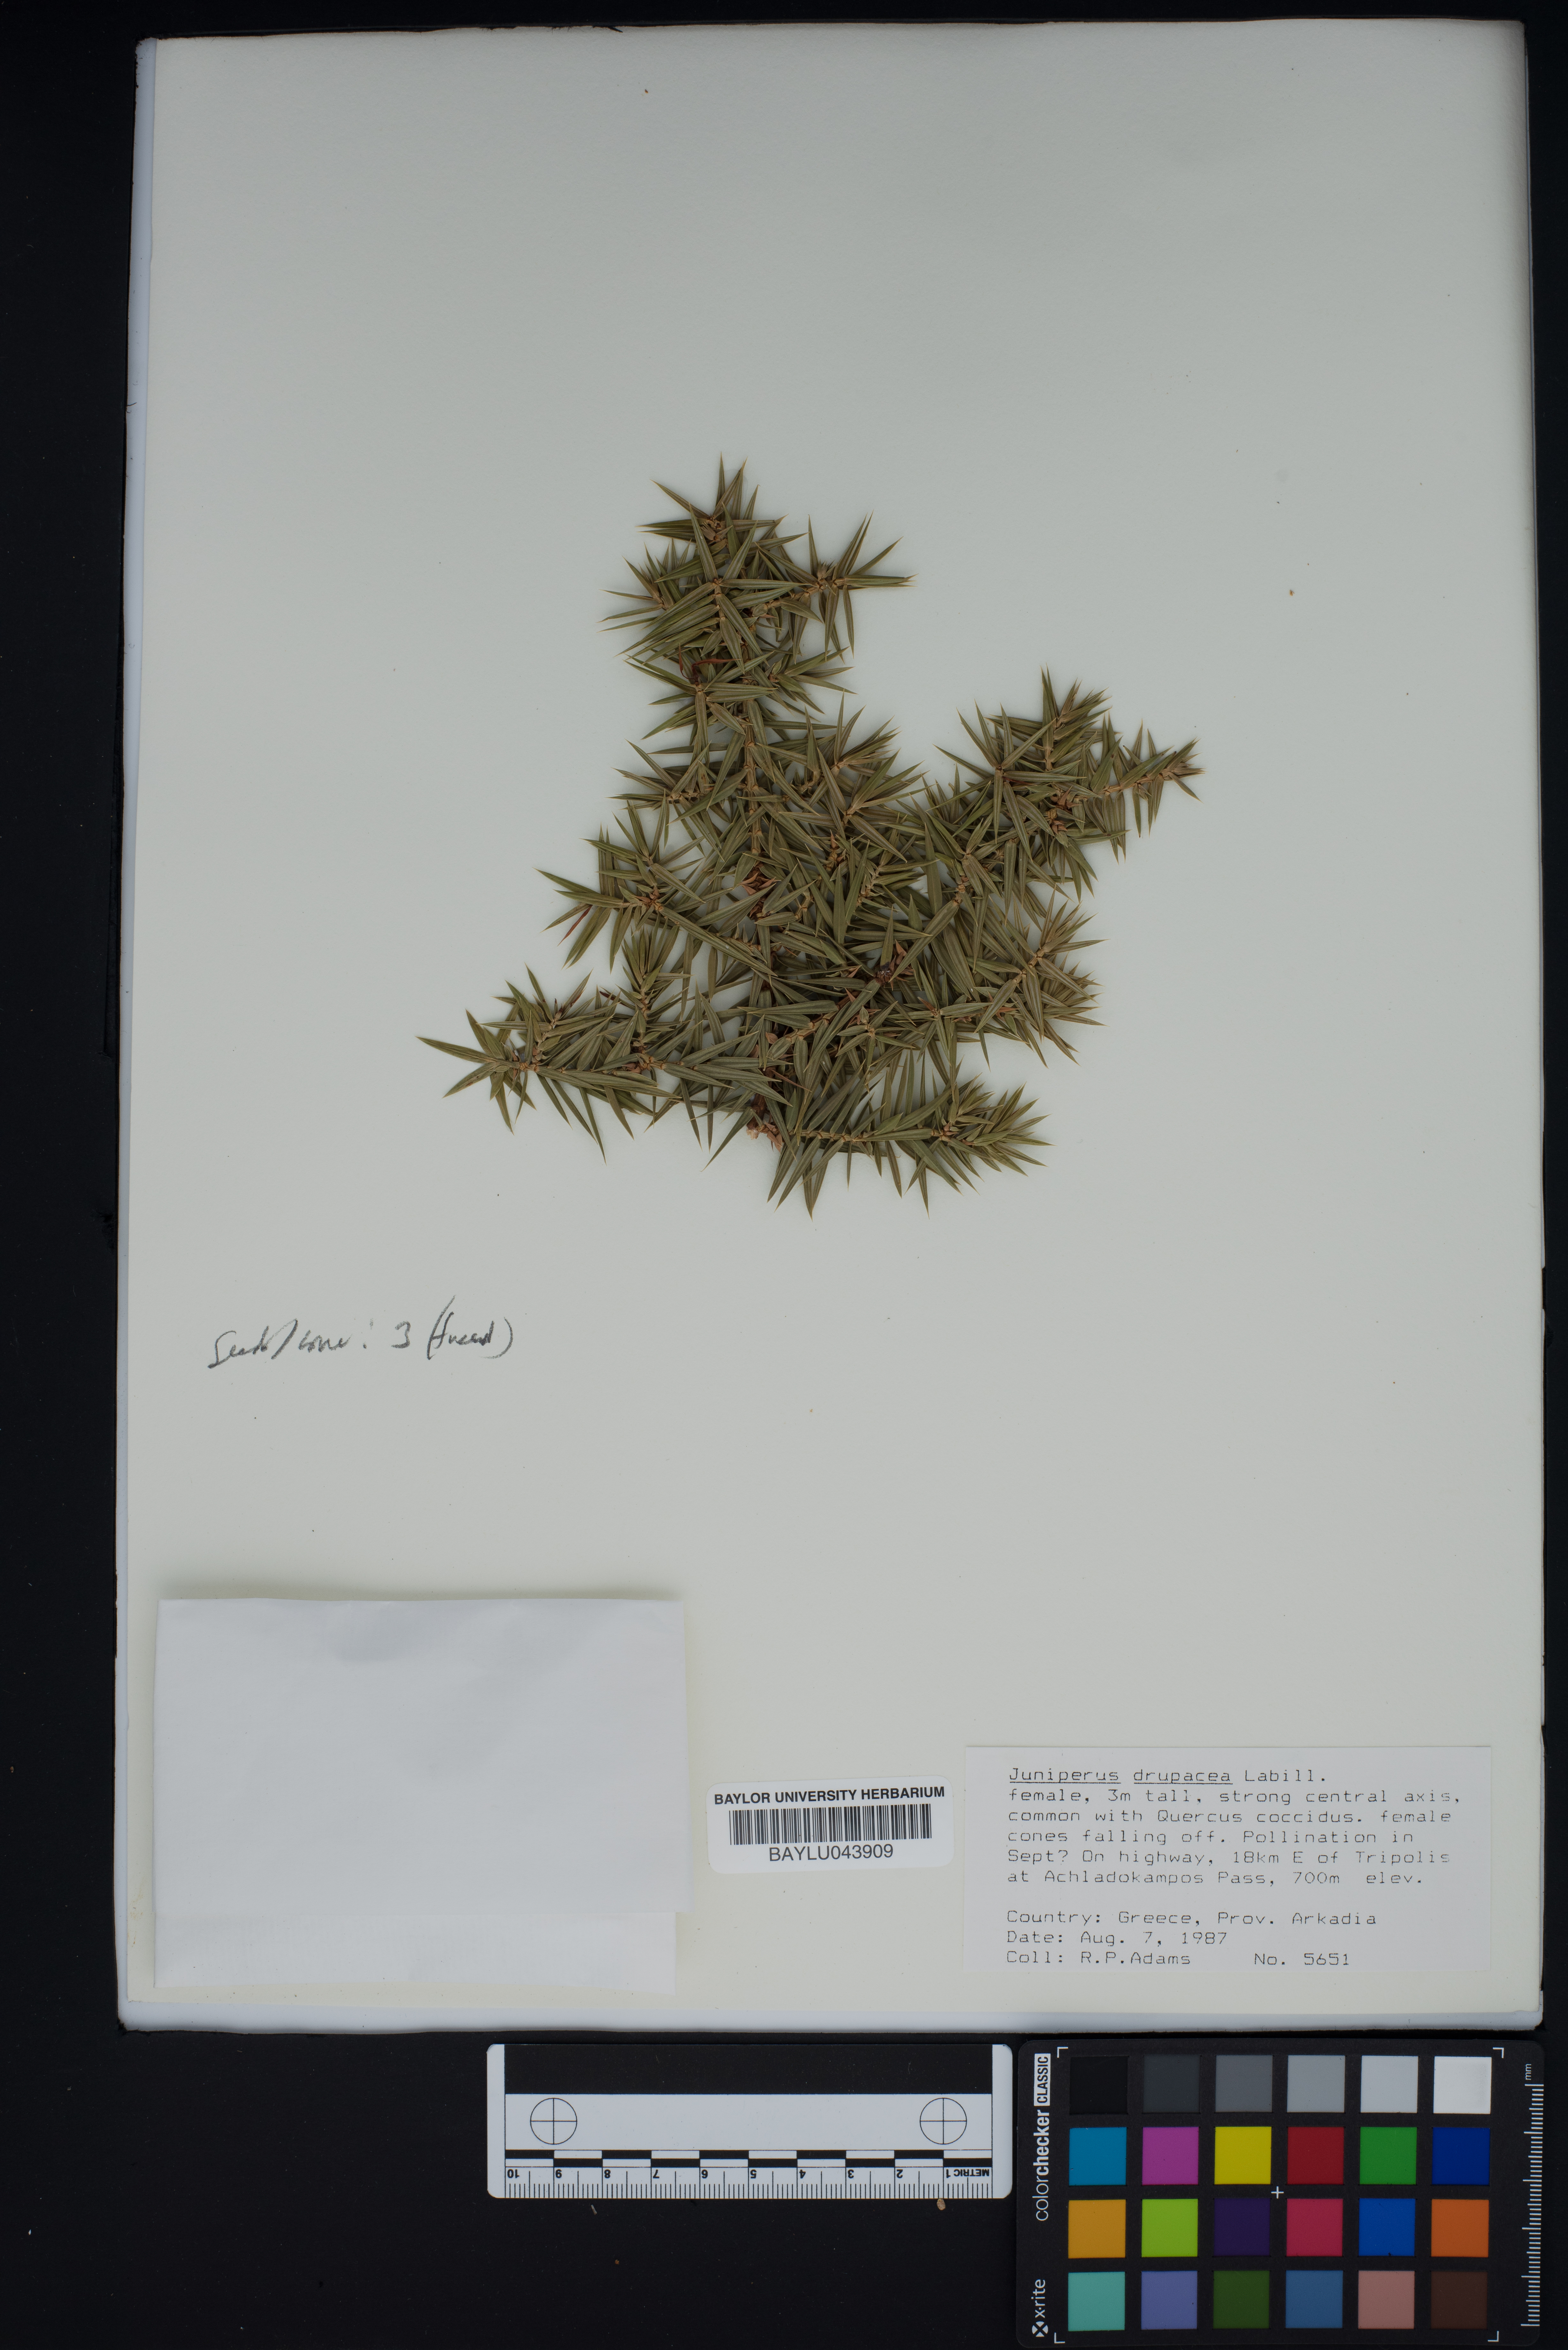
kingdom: Plantae
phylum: Tracheophyta
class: Pinopsida
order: Pinales
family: Cupressaceae
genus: Juniperus
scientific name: Juniperus drupacea
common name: Syrian juniper
